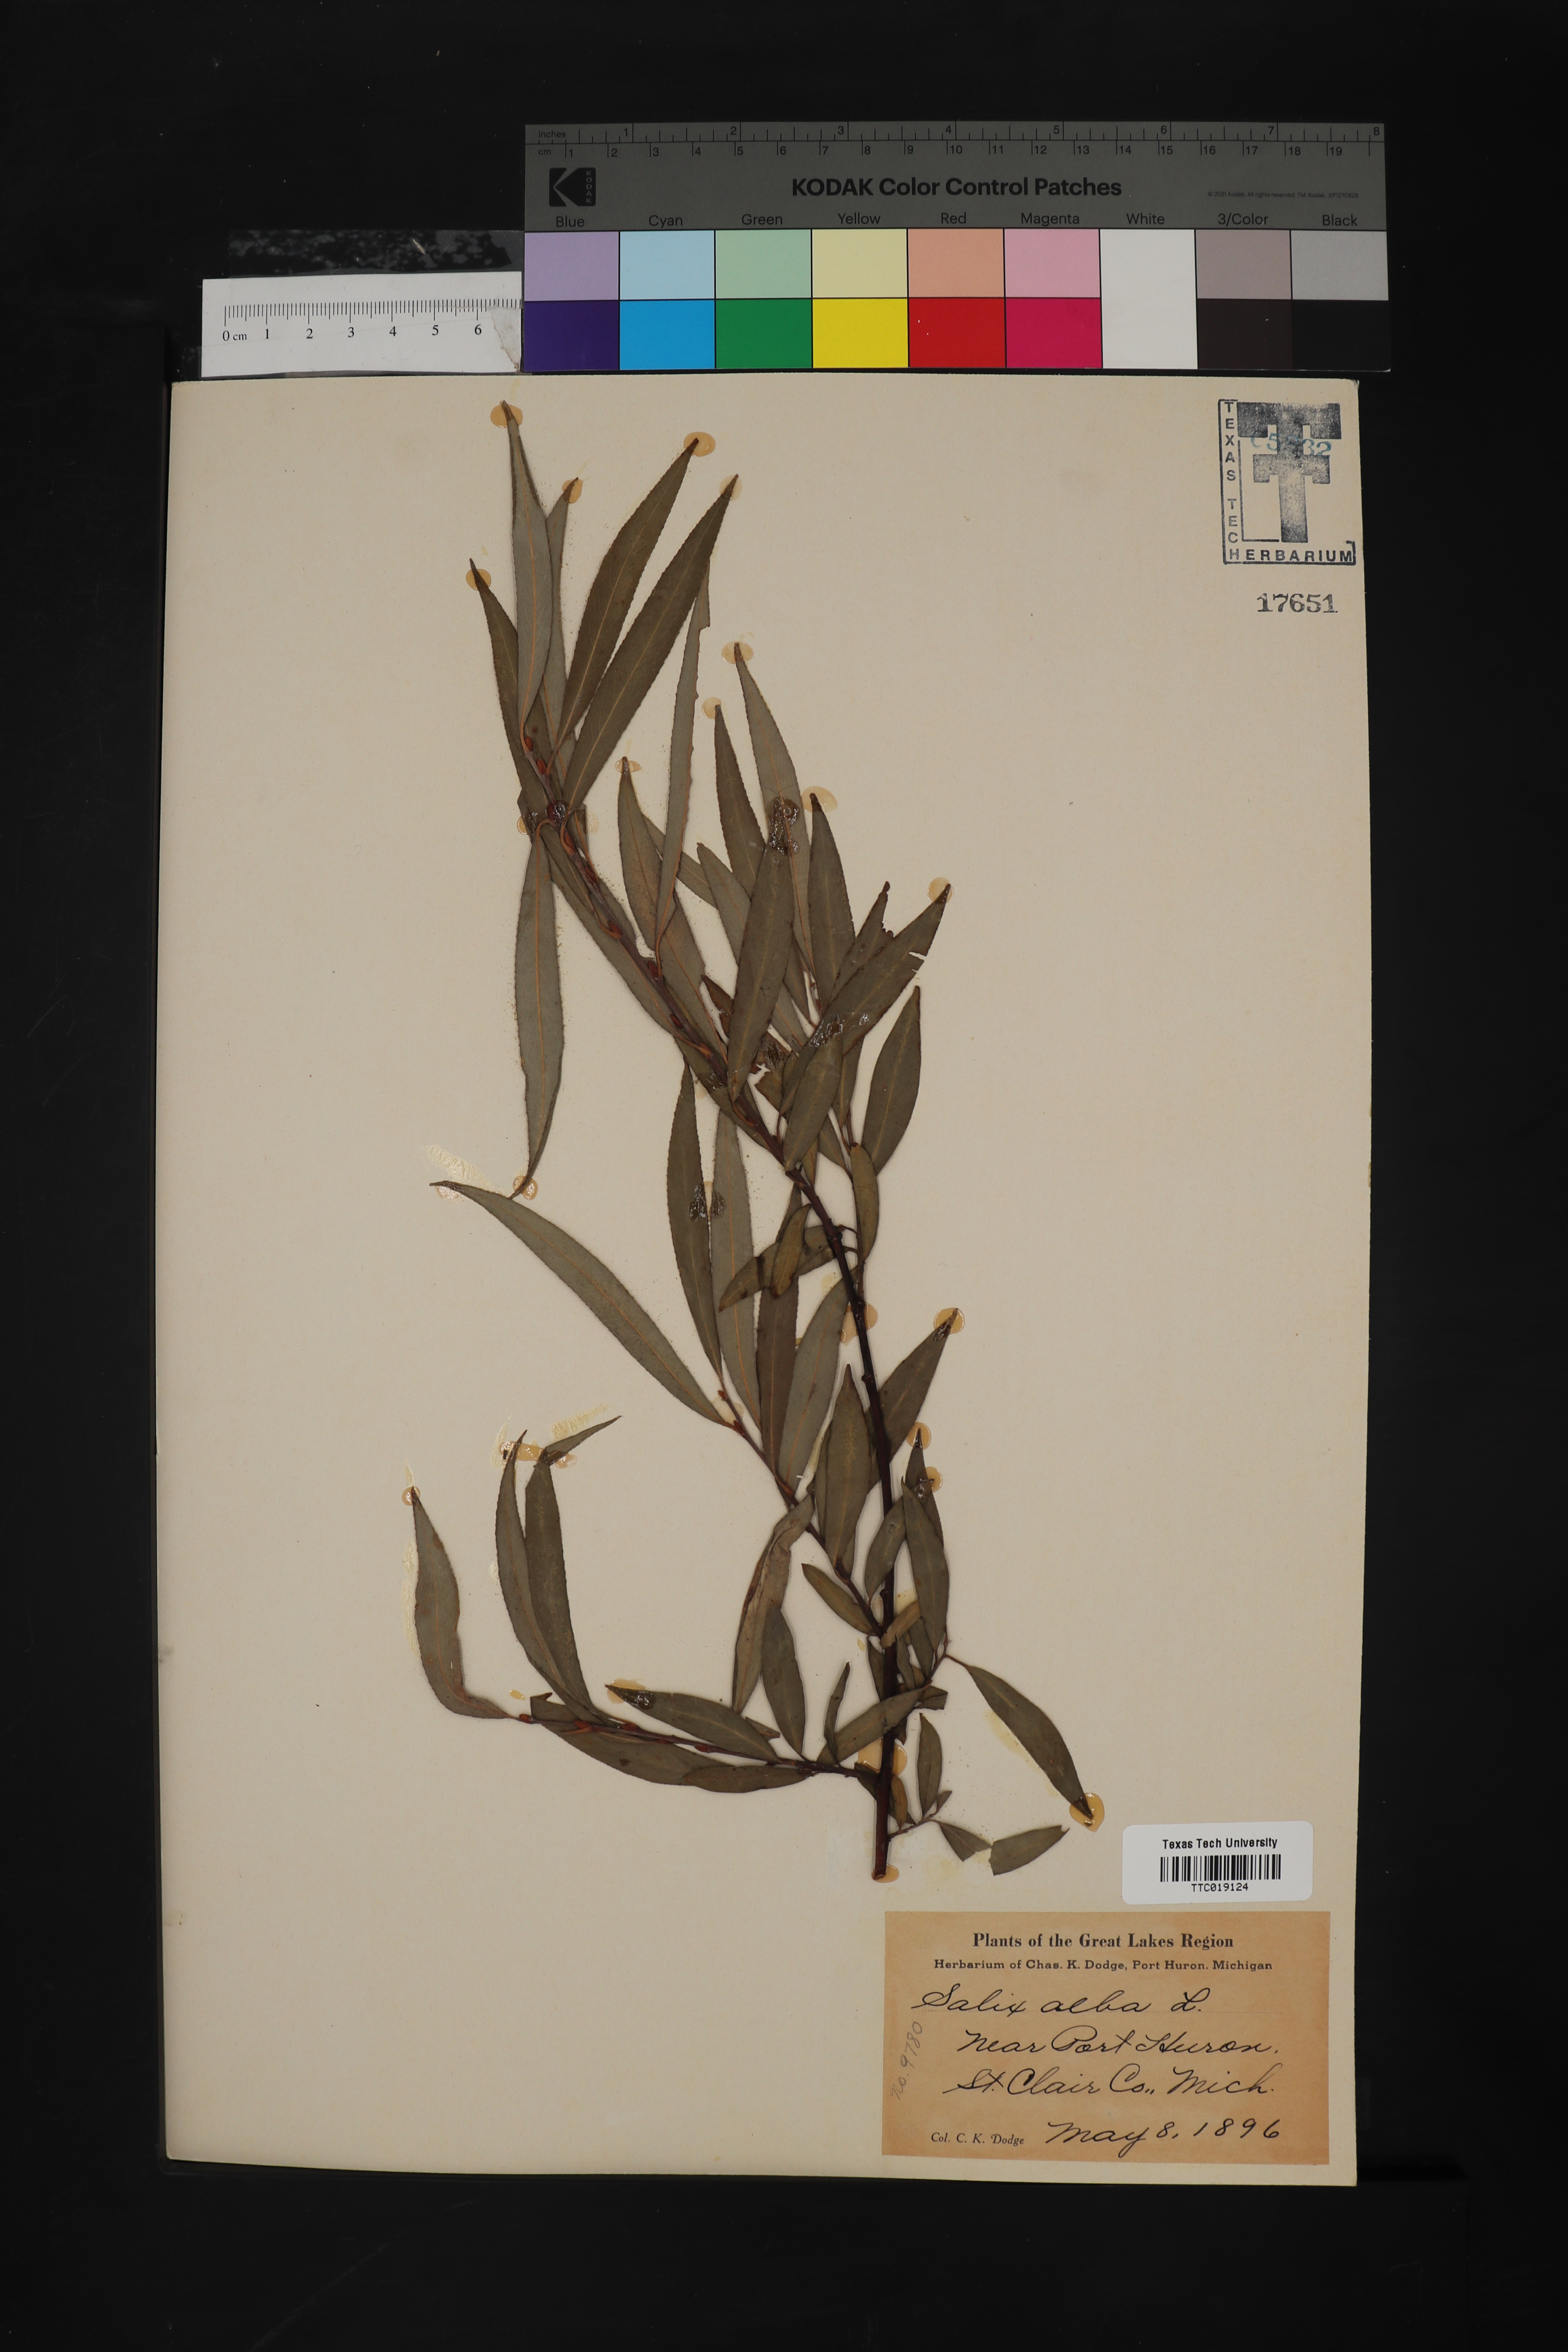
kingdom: Plantae
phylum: Tracheophyta
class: Magnoliopsida
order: Malpighiales
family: Salicaceae
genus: Salix
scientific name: Salix alba
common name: White willow
